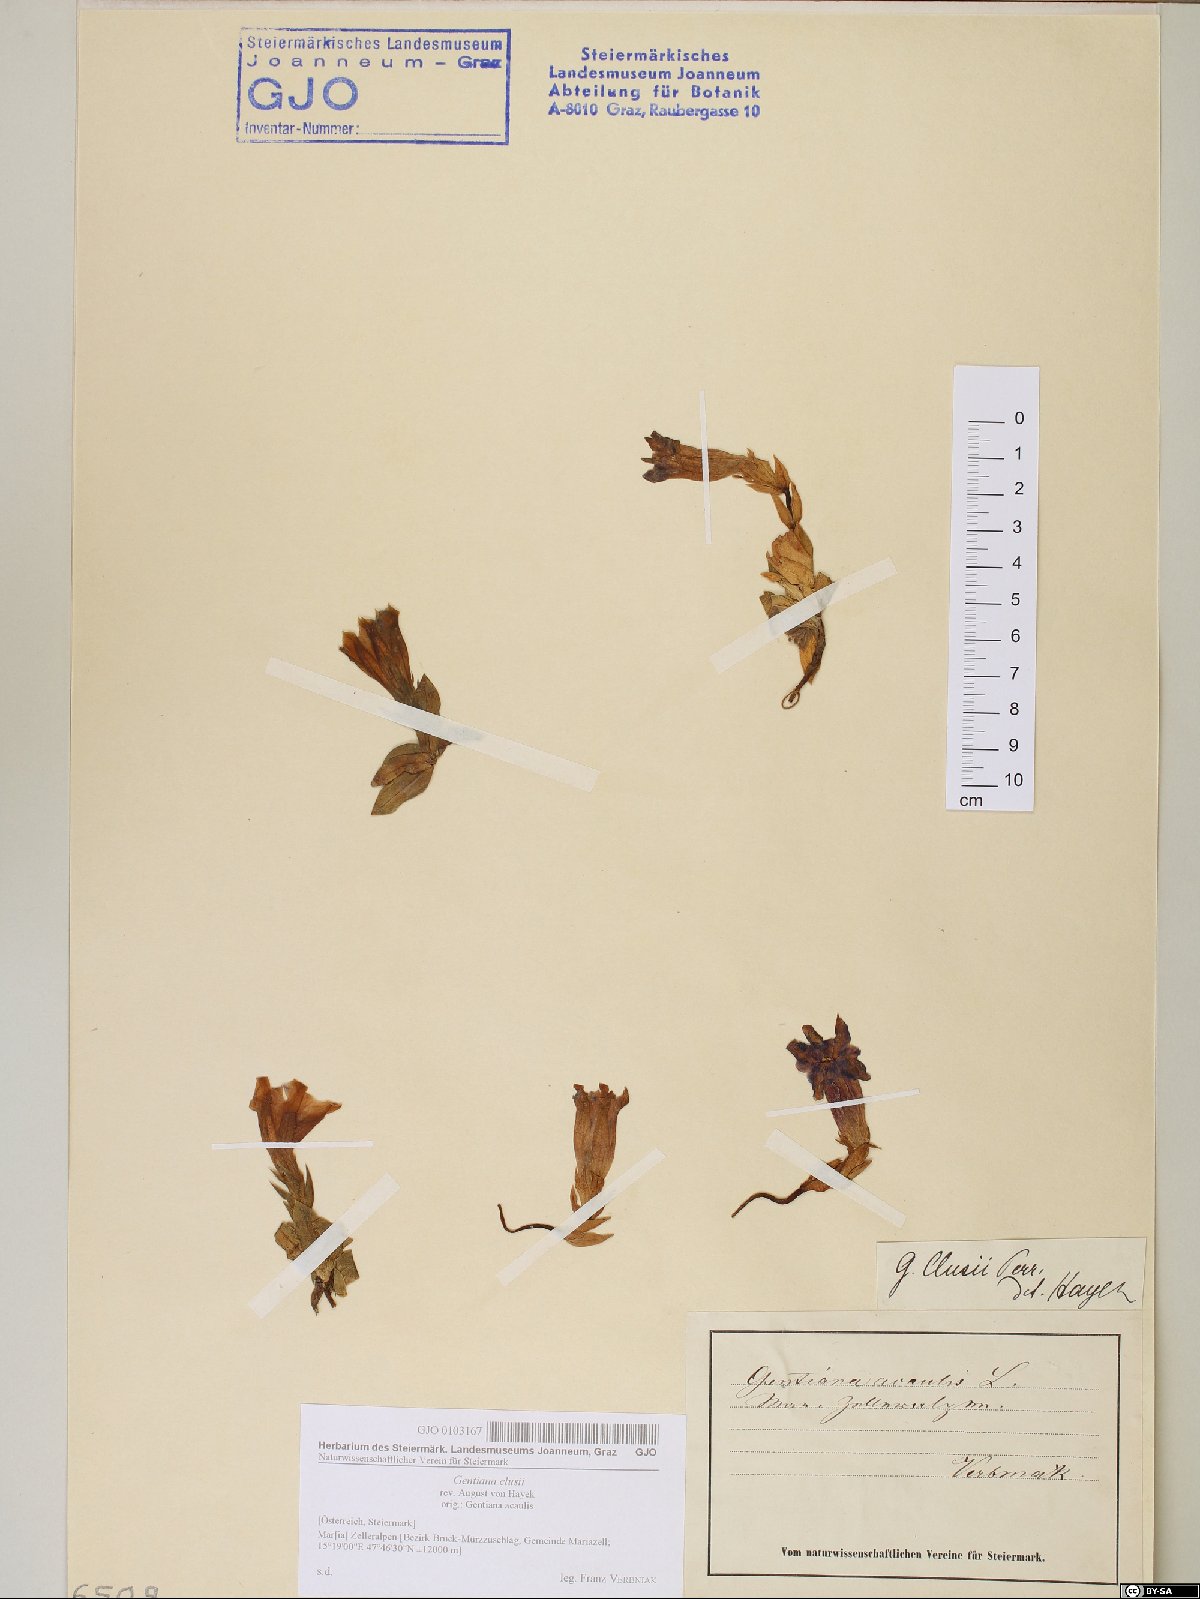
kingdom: Plantae
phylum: Tracheophyta
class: Magnoliopsida
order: Gentianales
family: Gentianaceae
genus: Gentiana
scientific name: Gentiana clusii
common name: Trumpet gentian
